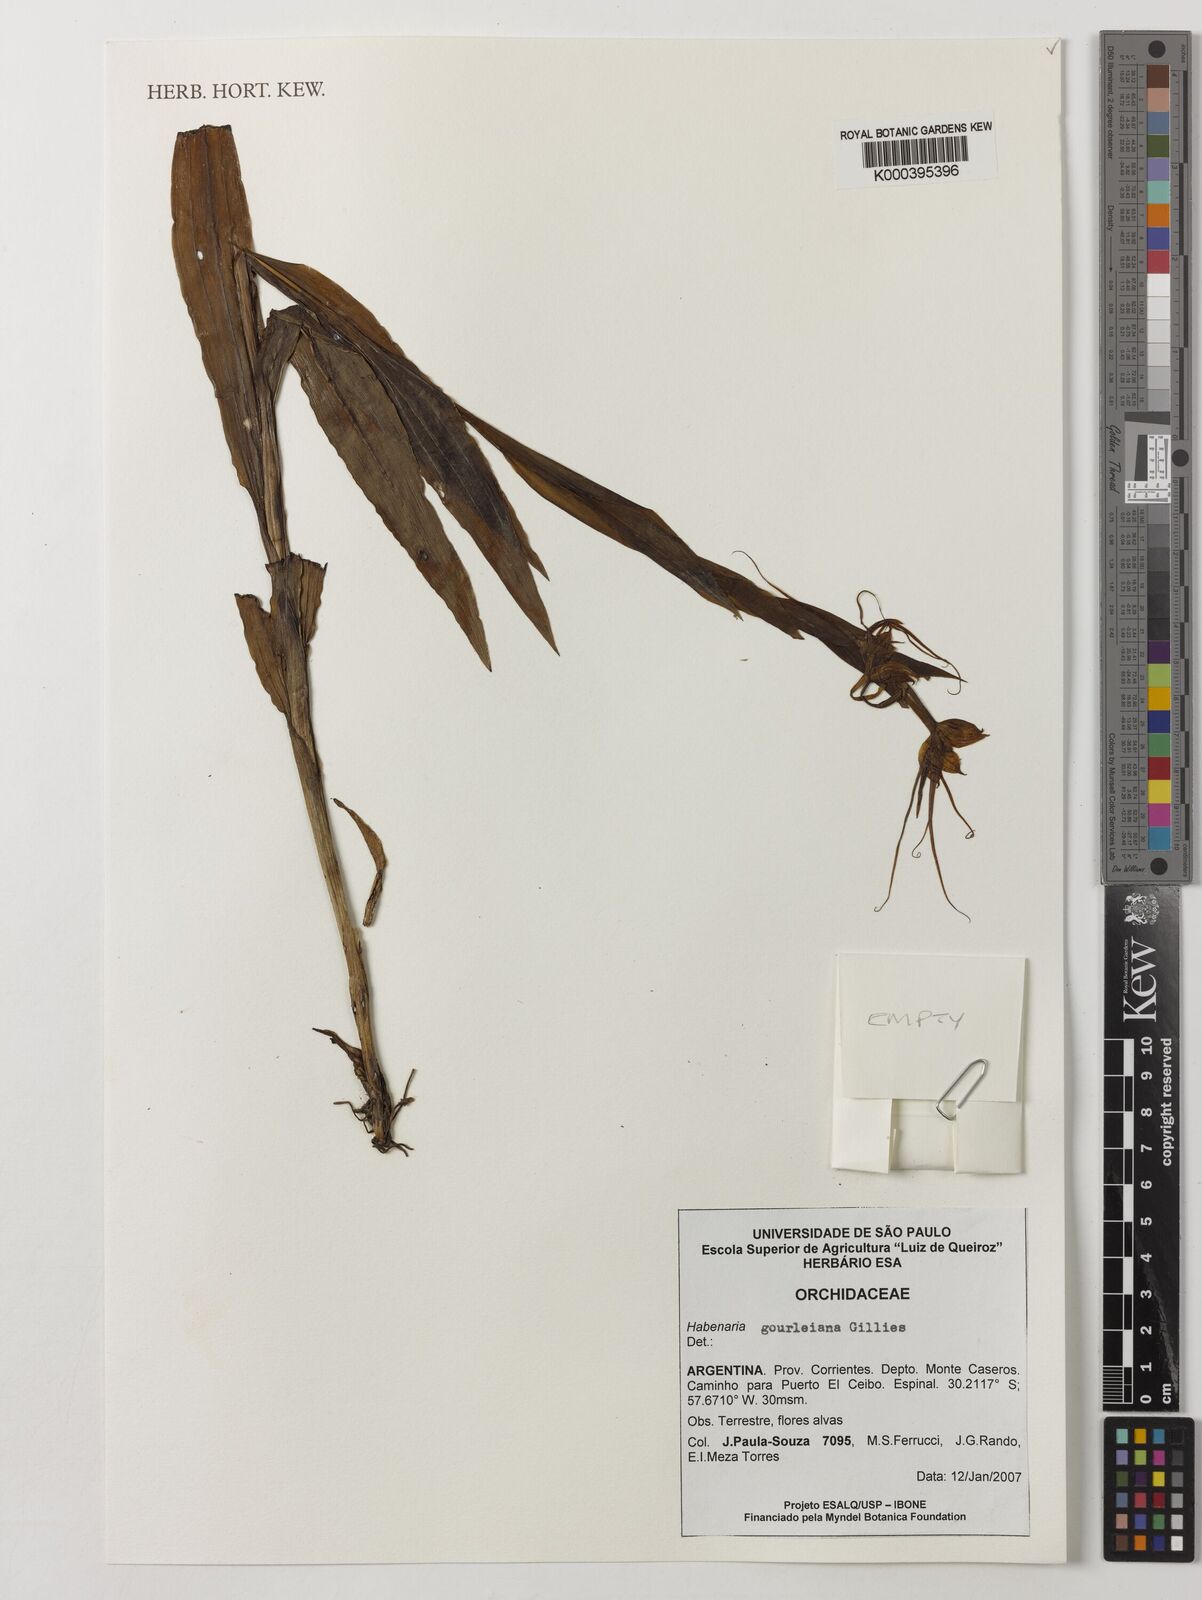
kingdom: Plantae
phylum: Tracheophyta
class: Liliopsida
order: Asparagales
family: Orchidaceae
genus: Habenaria
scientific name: Habenaria gourlieana
